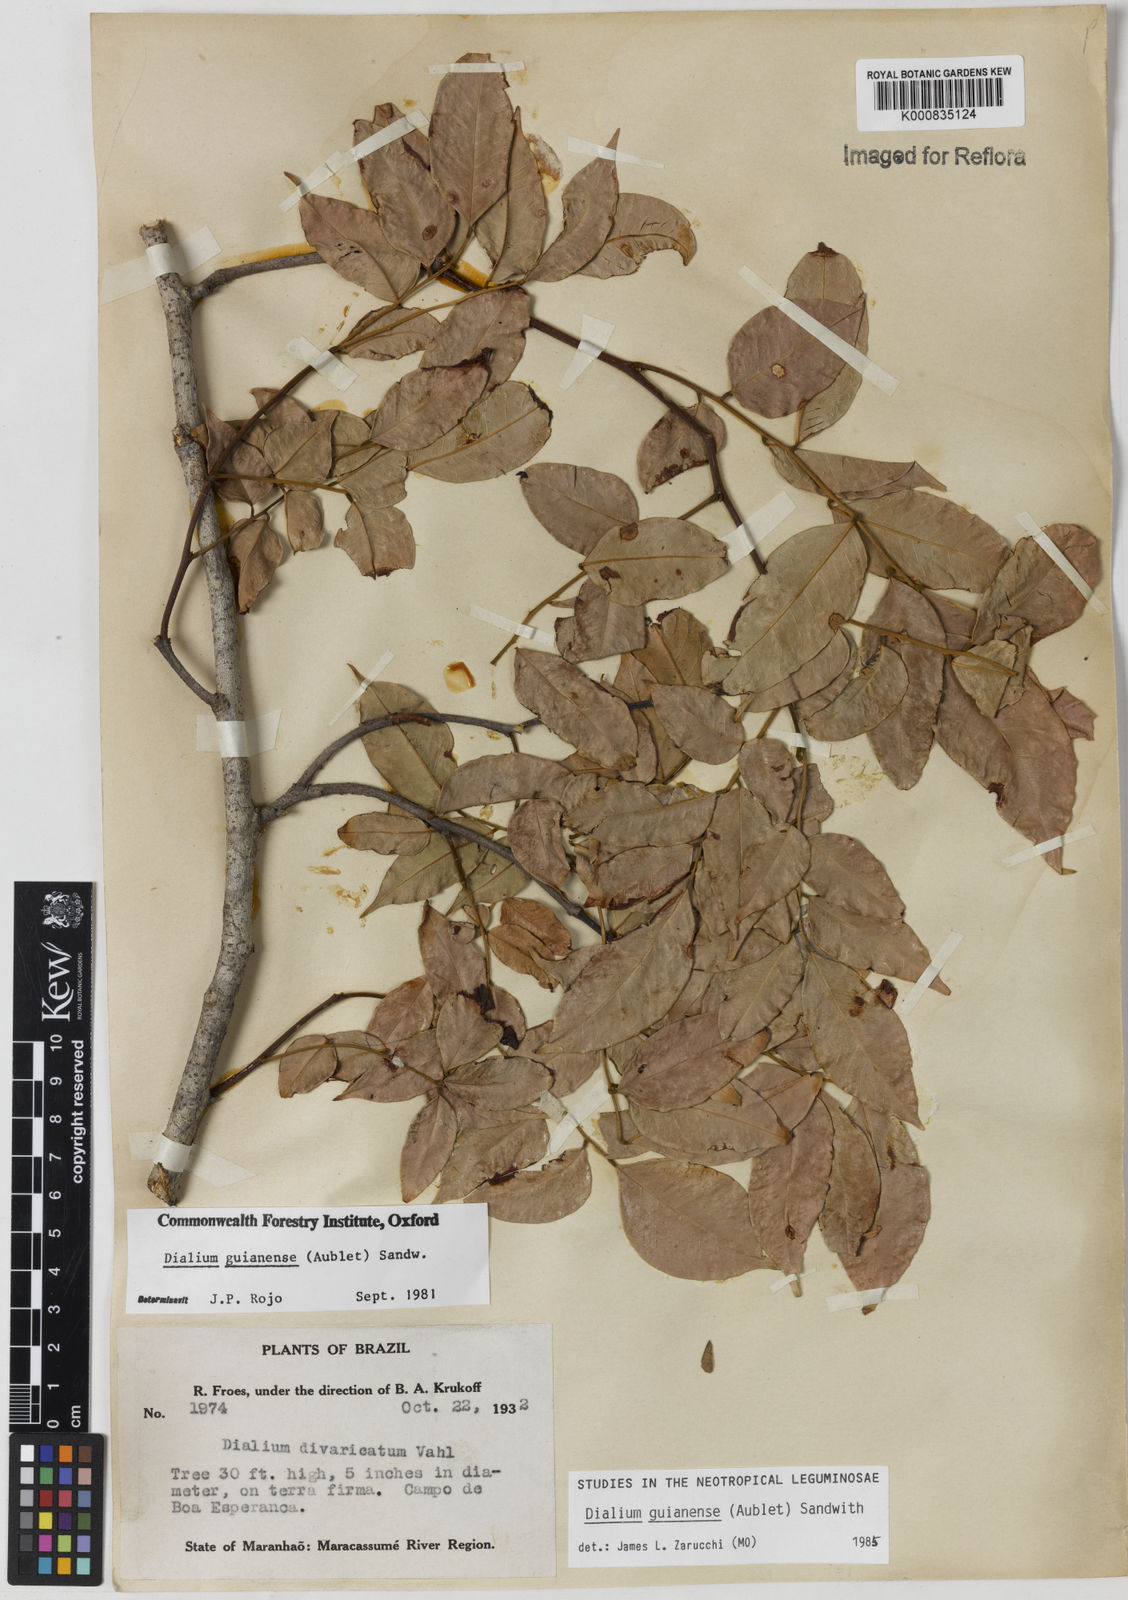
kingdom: Plantae
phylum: Tracheophyta
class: Magnoliopsida
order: Fabales
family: Fabaceae
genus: Dialium
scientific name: Dialium guianense
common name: Ironwood
